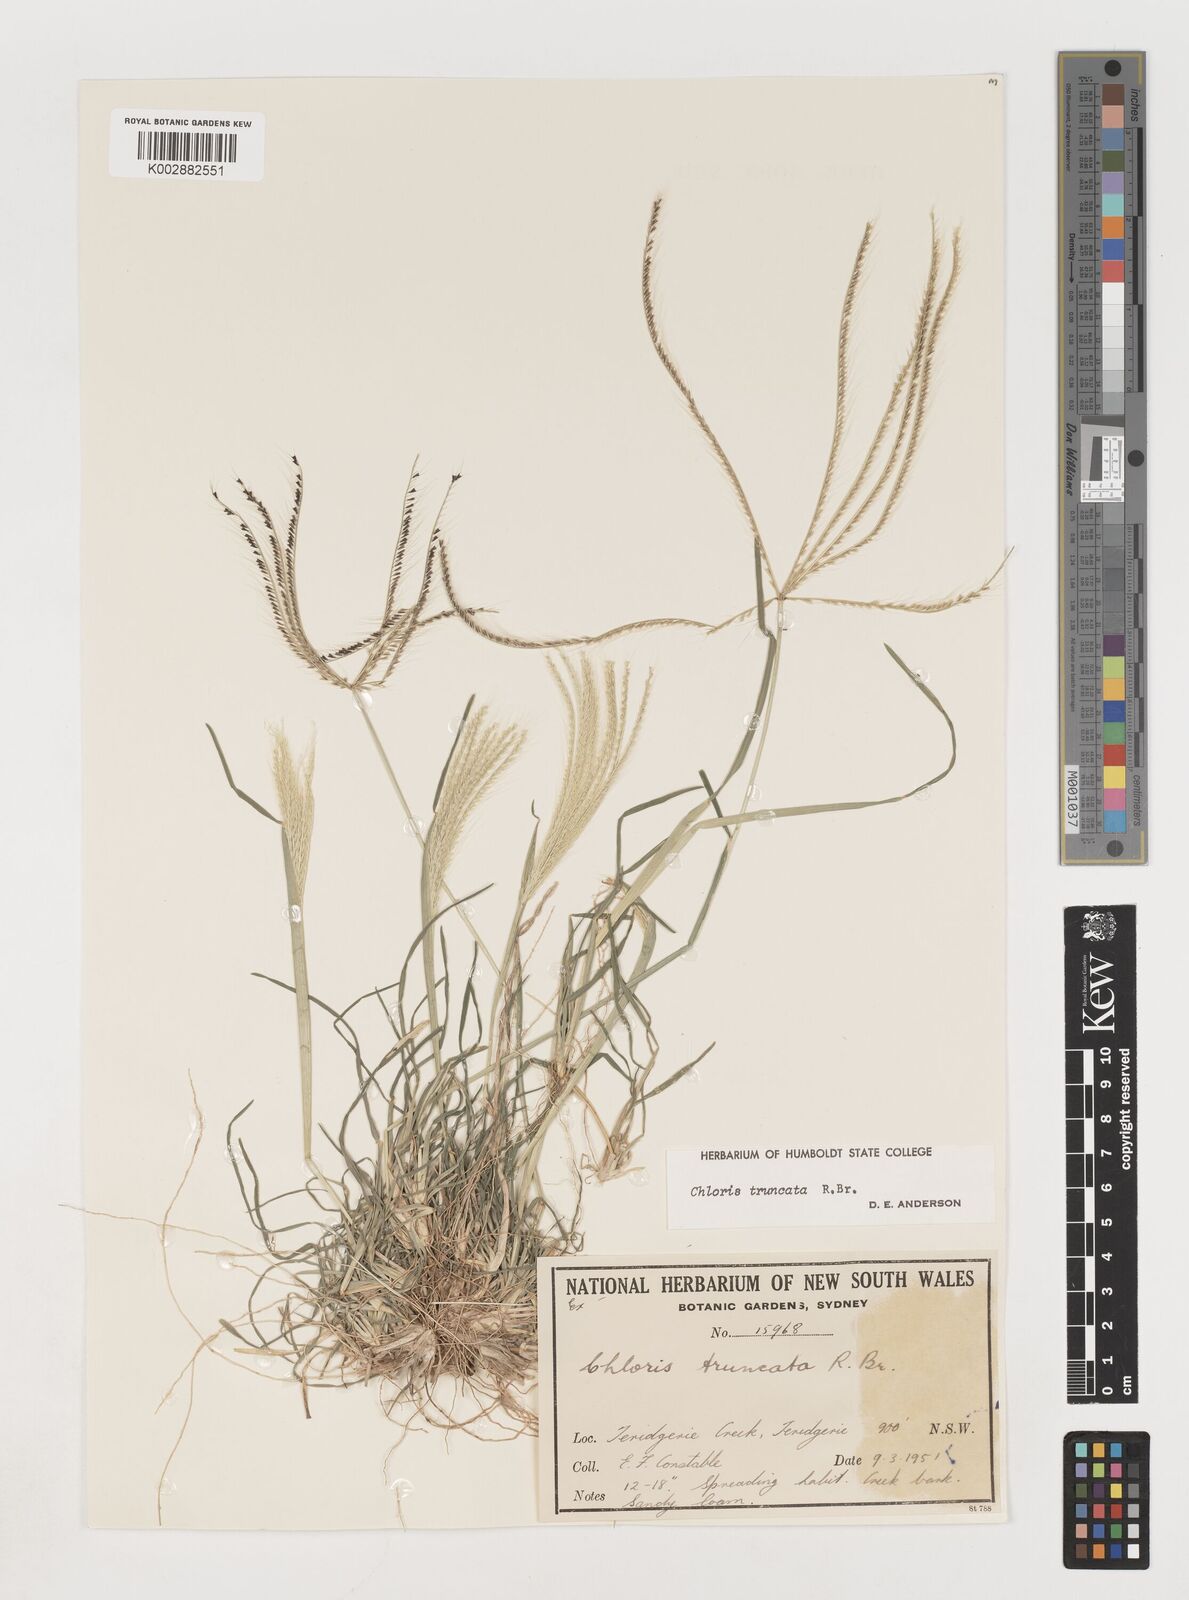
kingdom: Plantae
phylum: Tracheophyta
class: Liliopsida
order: Poales
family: Poaceae
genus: Chloris
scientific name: Chloris truncata
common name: Windmill-grass
